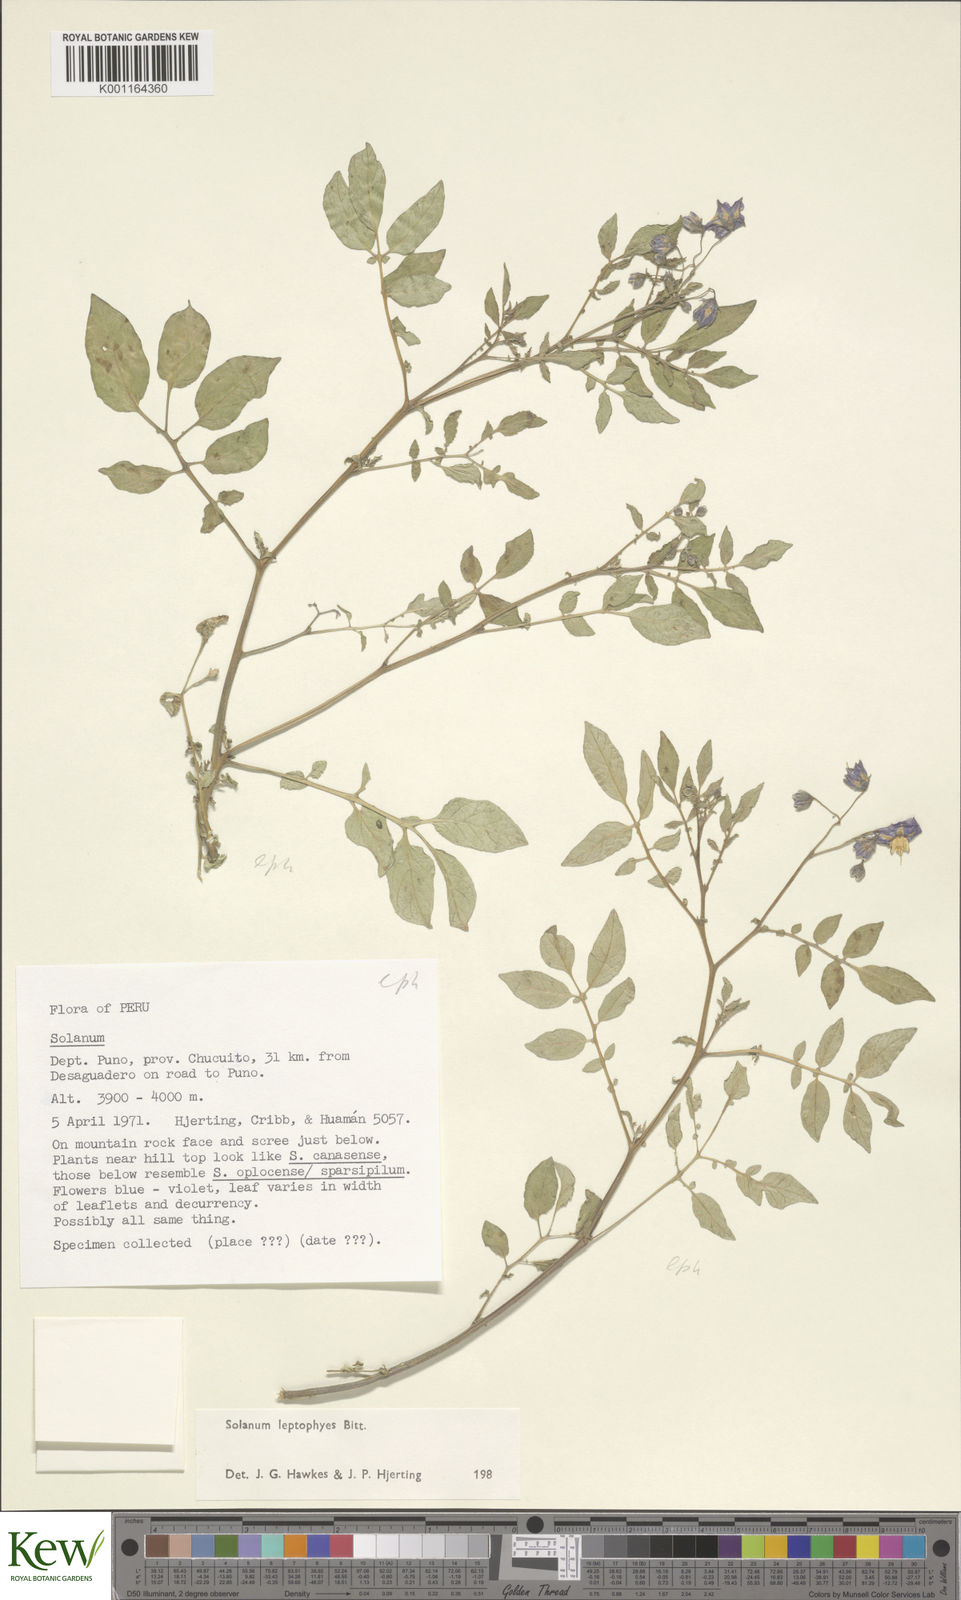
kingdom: Plantae
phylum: Tracheophyta
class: Magnoliopsida
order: Solanales
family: Solanaceae
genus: Solanum
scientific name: Solanum brevicaule
